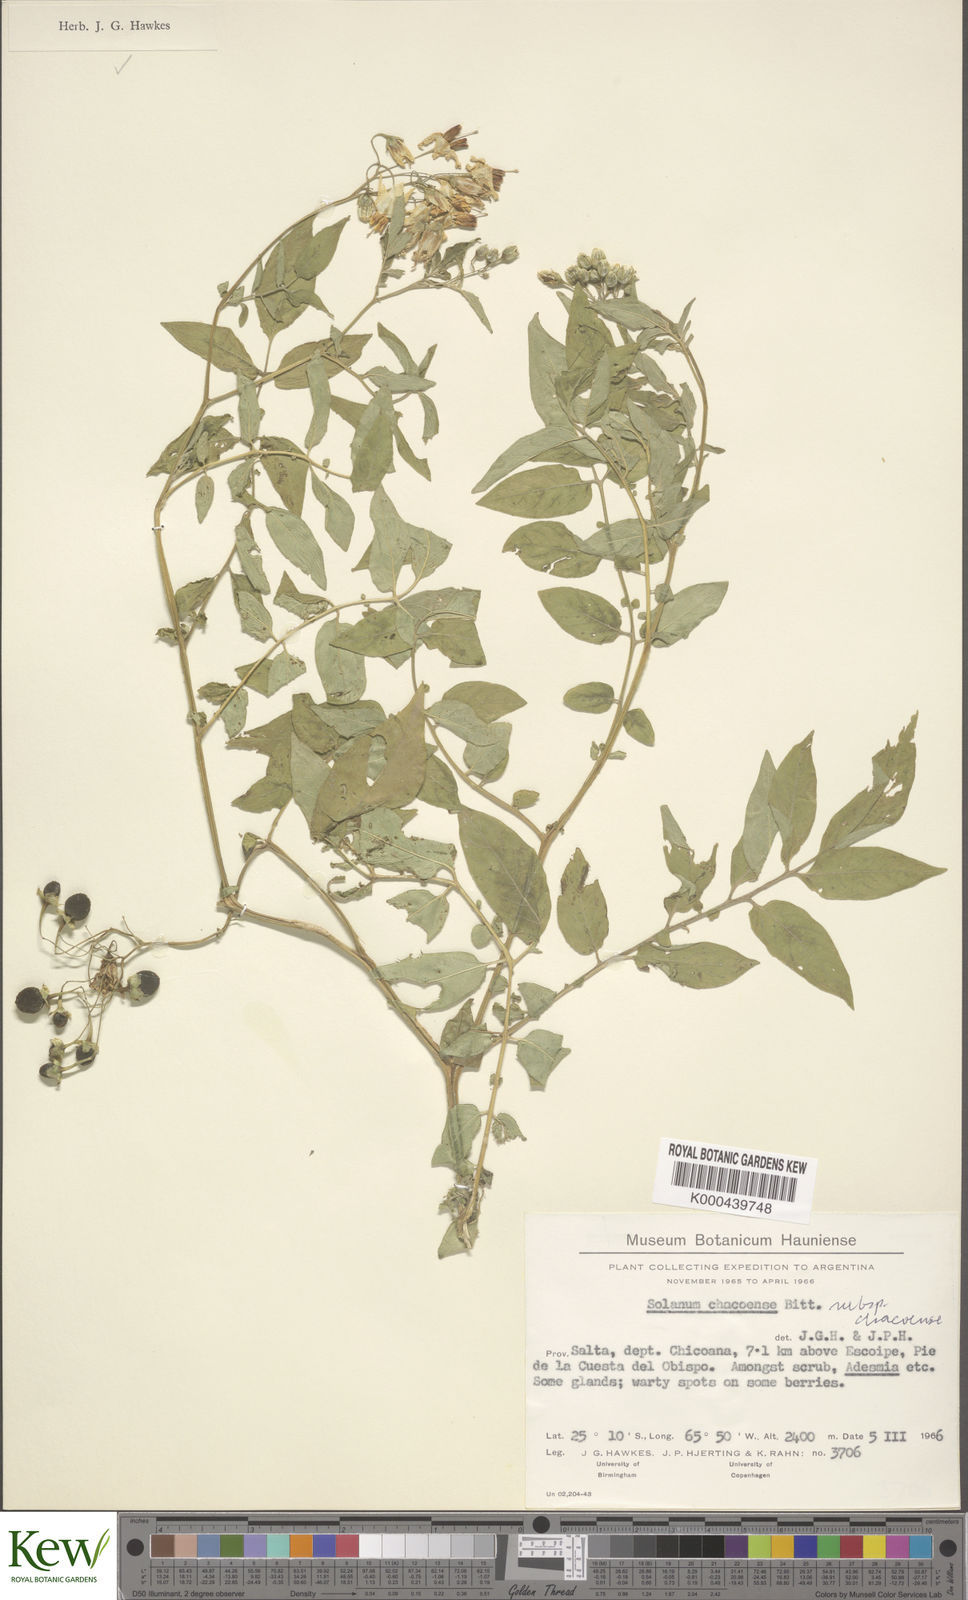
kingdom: Plantae
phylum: Tracheophyta
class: Magnoliopsida
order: Solanales
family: Solanaceae
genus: Solanum
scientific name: Solanum chacoense
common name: Chaco potato
